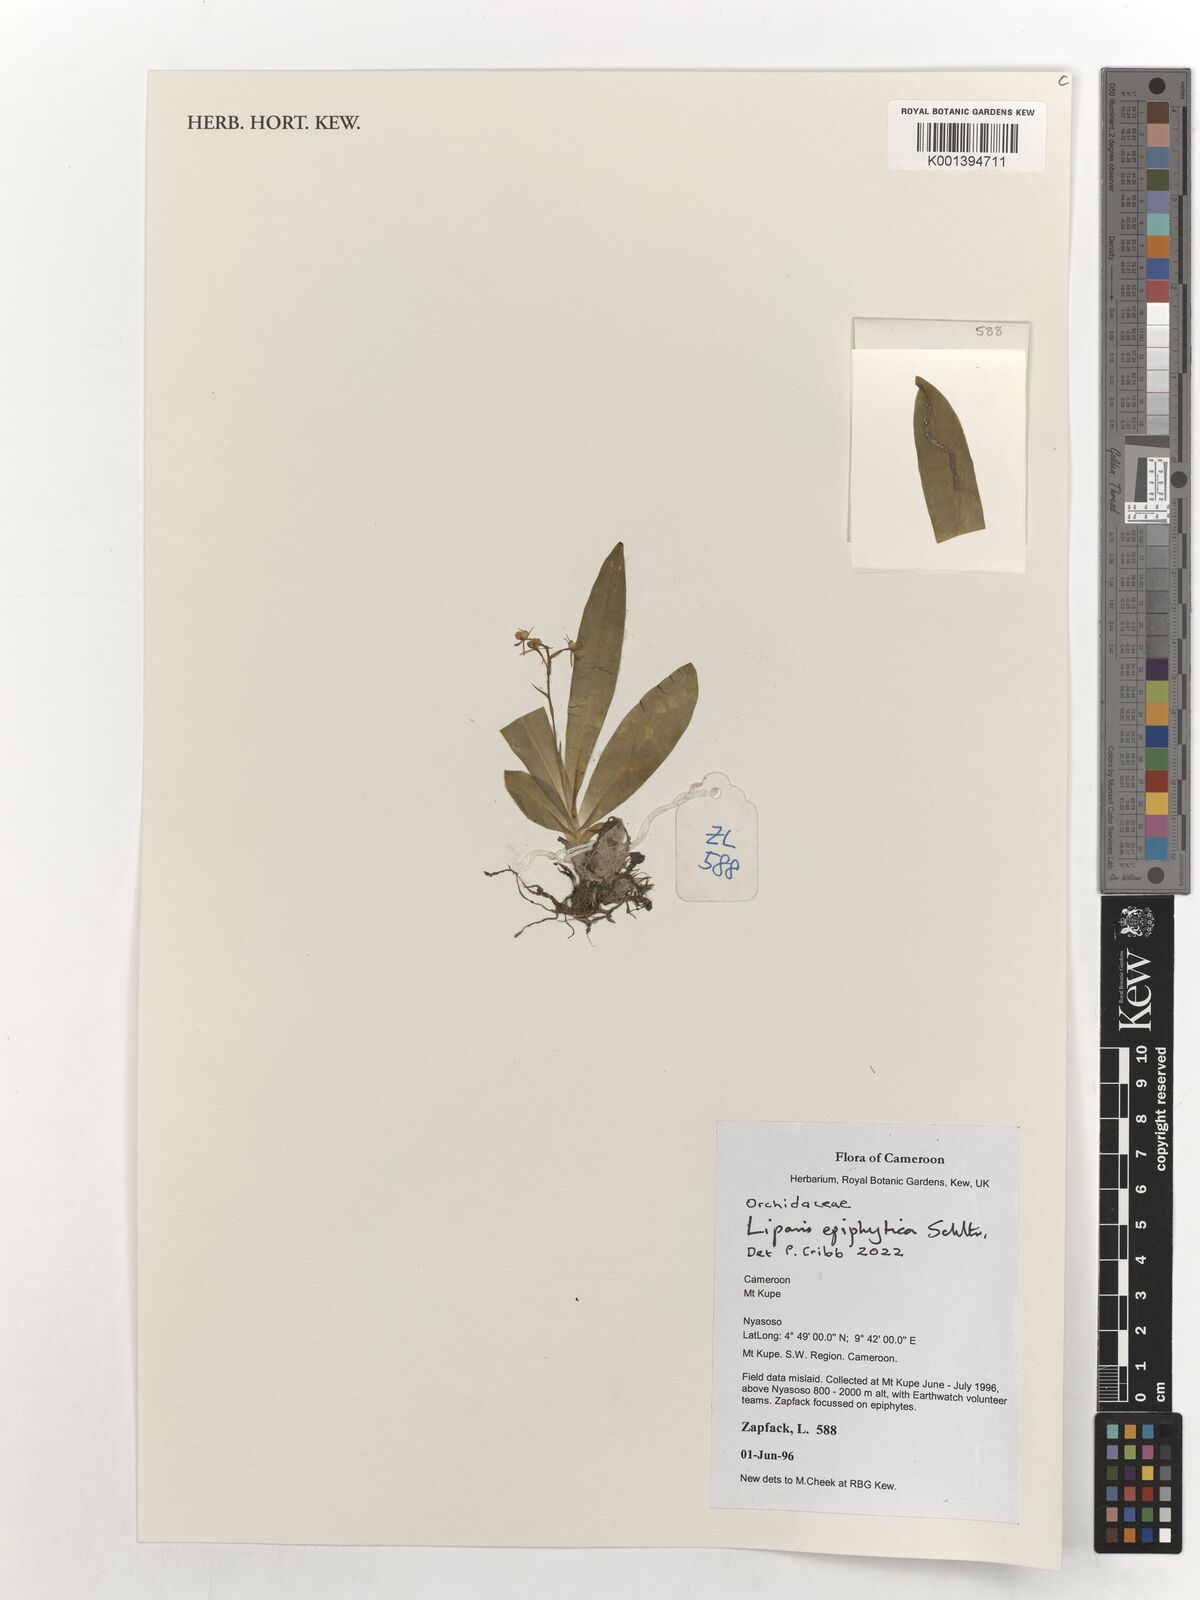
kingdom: Plantae
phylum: Tracheophyta
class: Liliopsida
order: Asparagales
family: Orchidaceae
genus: Liparis
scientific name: Liparis epiphytica
